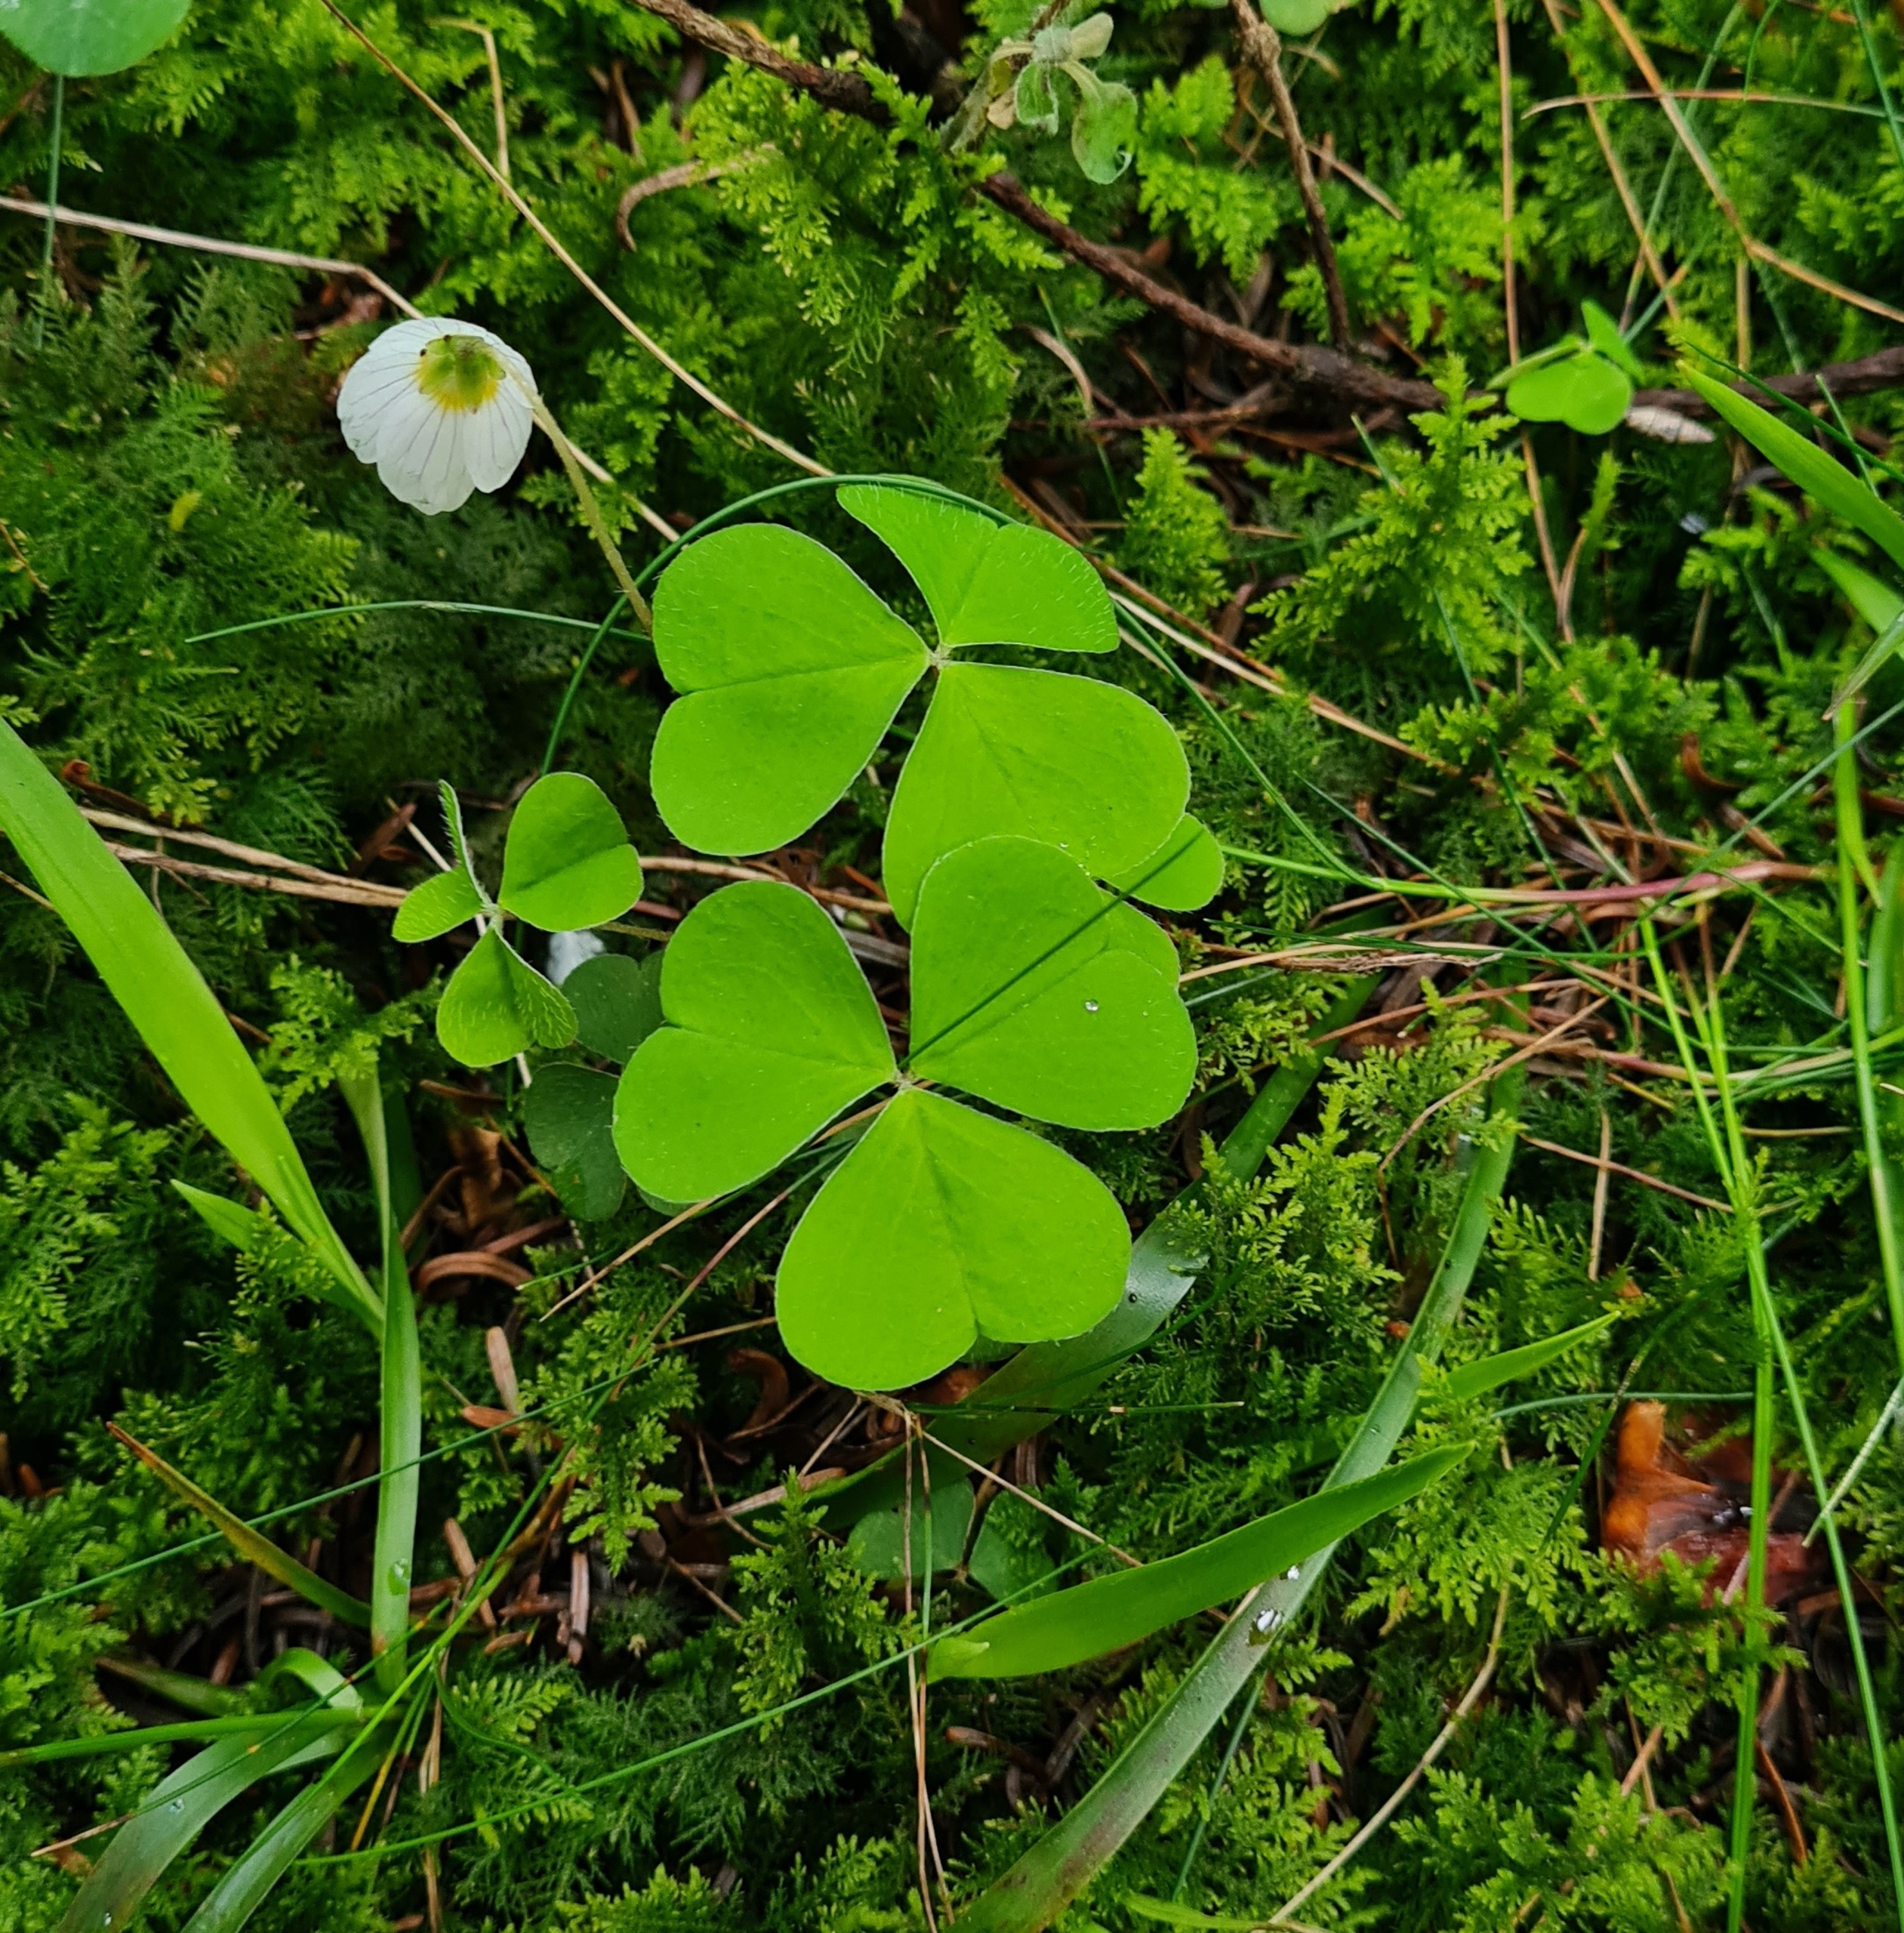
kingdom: Plantae
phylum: Tracheophyta
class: Magnoliopsida
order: Oxalidales
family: Oxalidaceae
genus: Oxalis
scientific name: Oxalis acetosella
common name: Skovsyre
